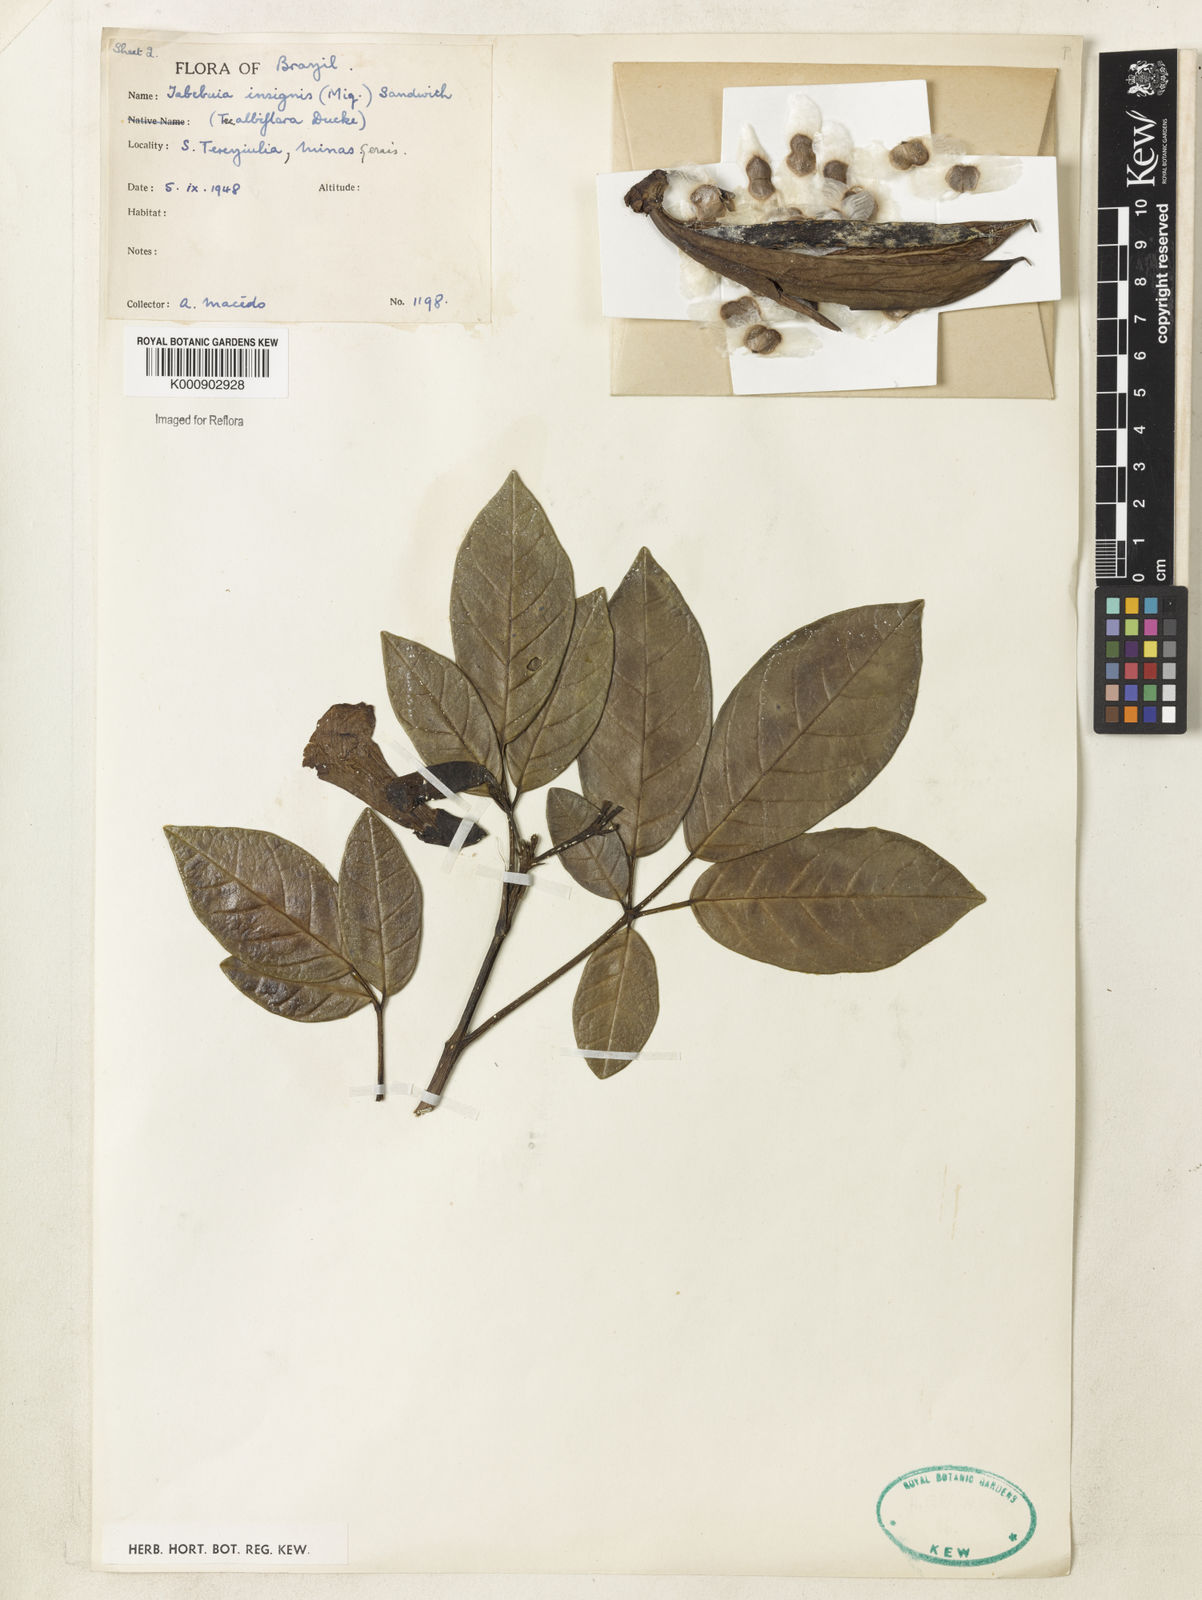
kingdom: Plantae
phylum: Tracheophyta
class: Magnoliopsida
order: Lamiales
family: Bignoniaceae
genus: Tabebuia
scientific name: Tabebuia insignis
